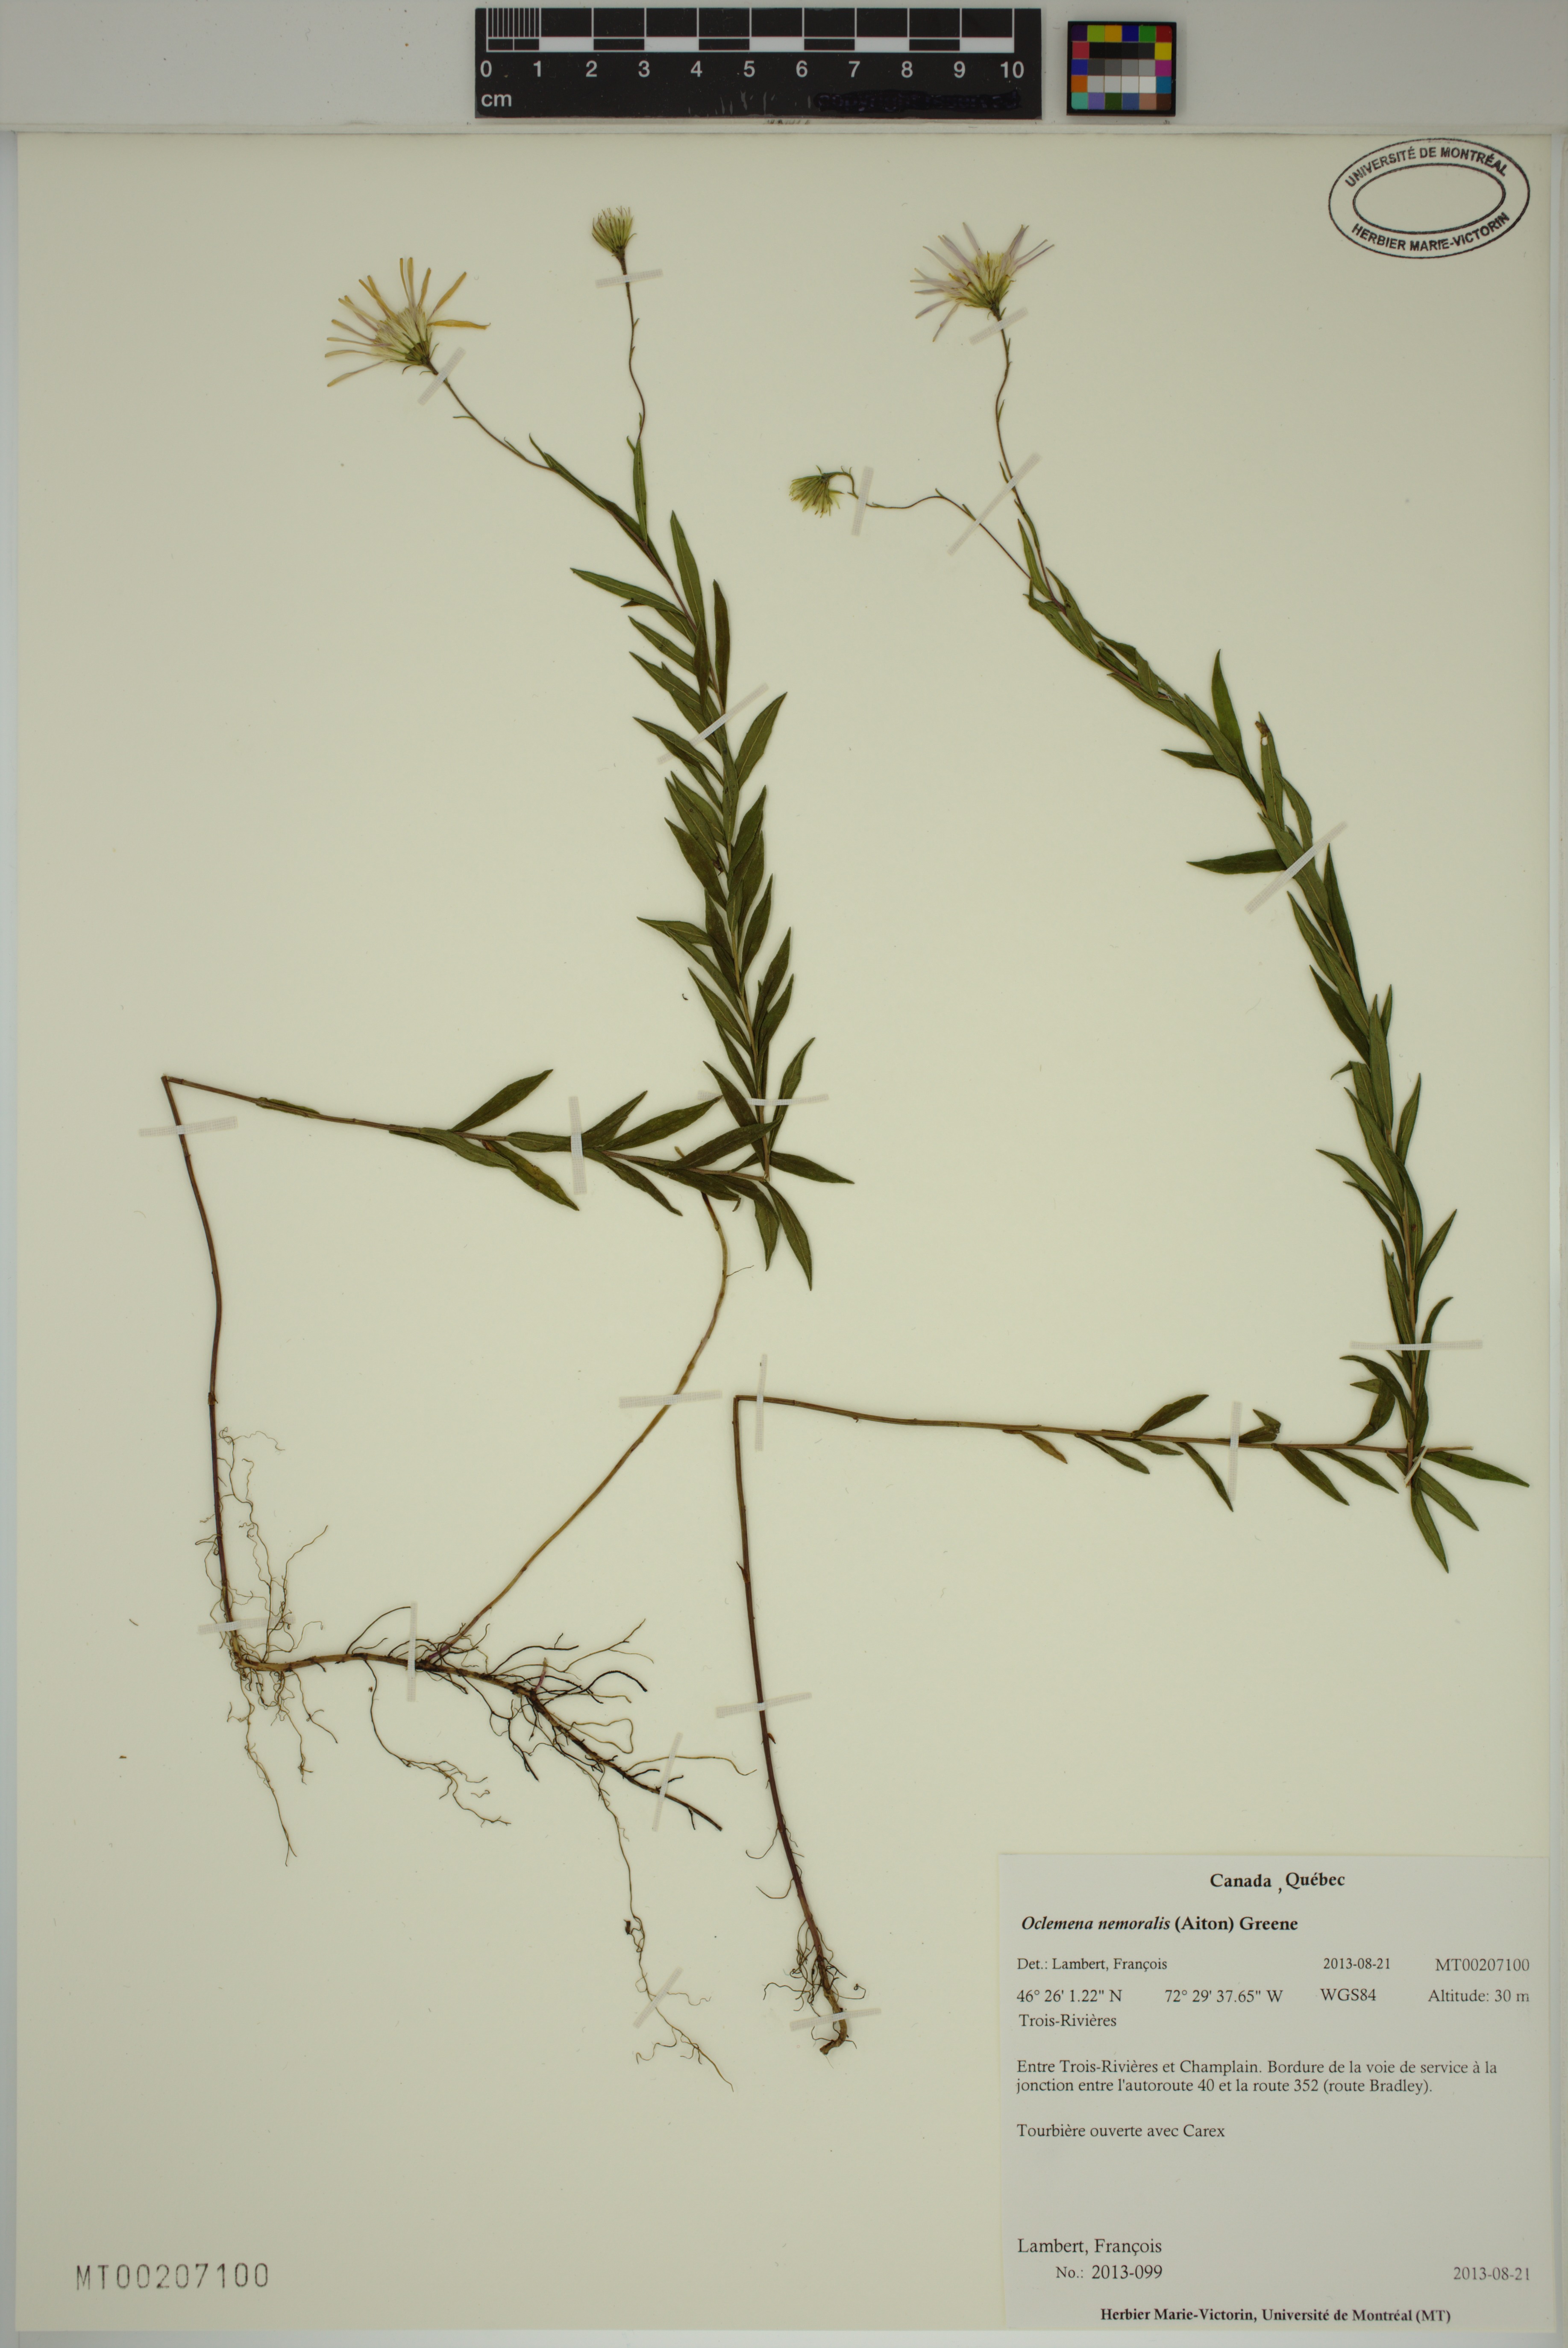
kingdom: Plantae
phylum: Tracheophyta
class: Magnoliopsida
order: Asterales
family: Asteraceae
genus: Oclemena
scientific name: Oclemena nemoralis
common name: Bog aster
